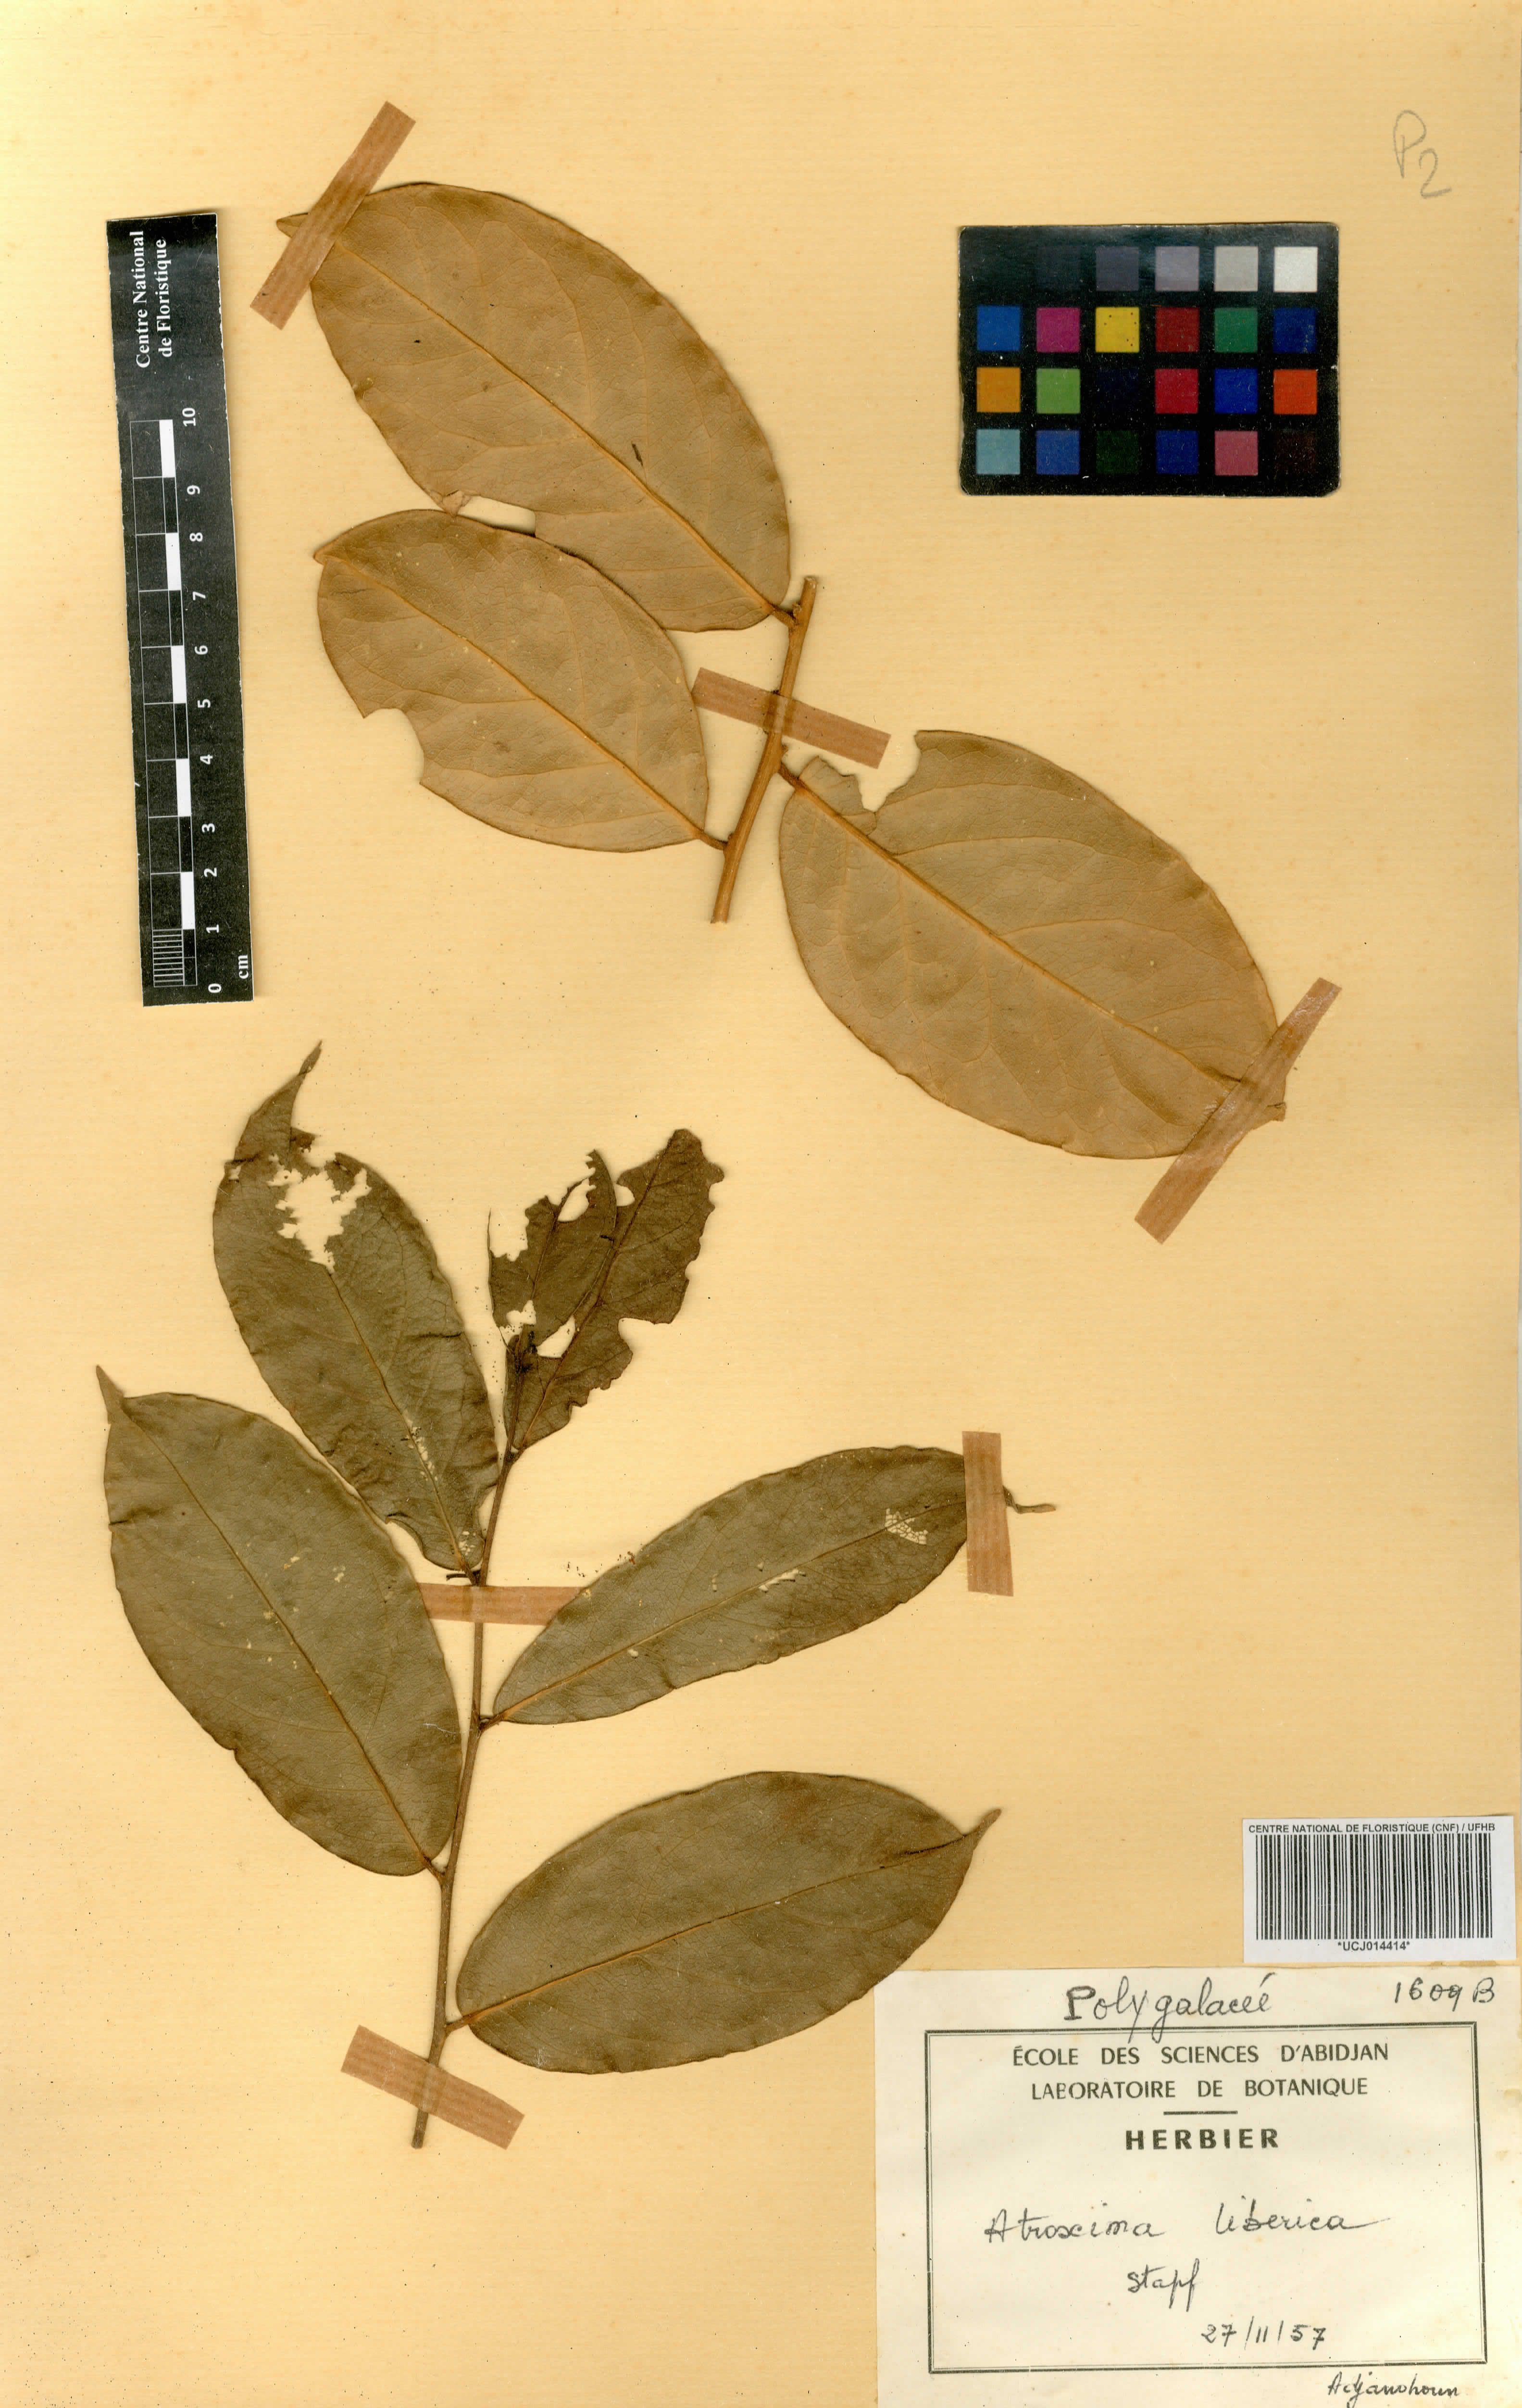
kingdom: Plantae
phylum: Tracheophyta
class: Magnoliopsida
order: Fabales
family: Polygalaceae
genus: Atroxima
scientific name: Atroxima liberica
